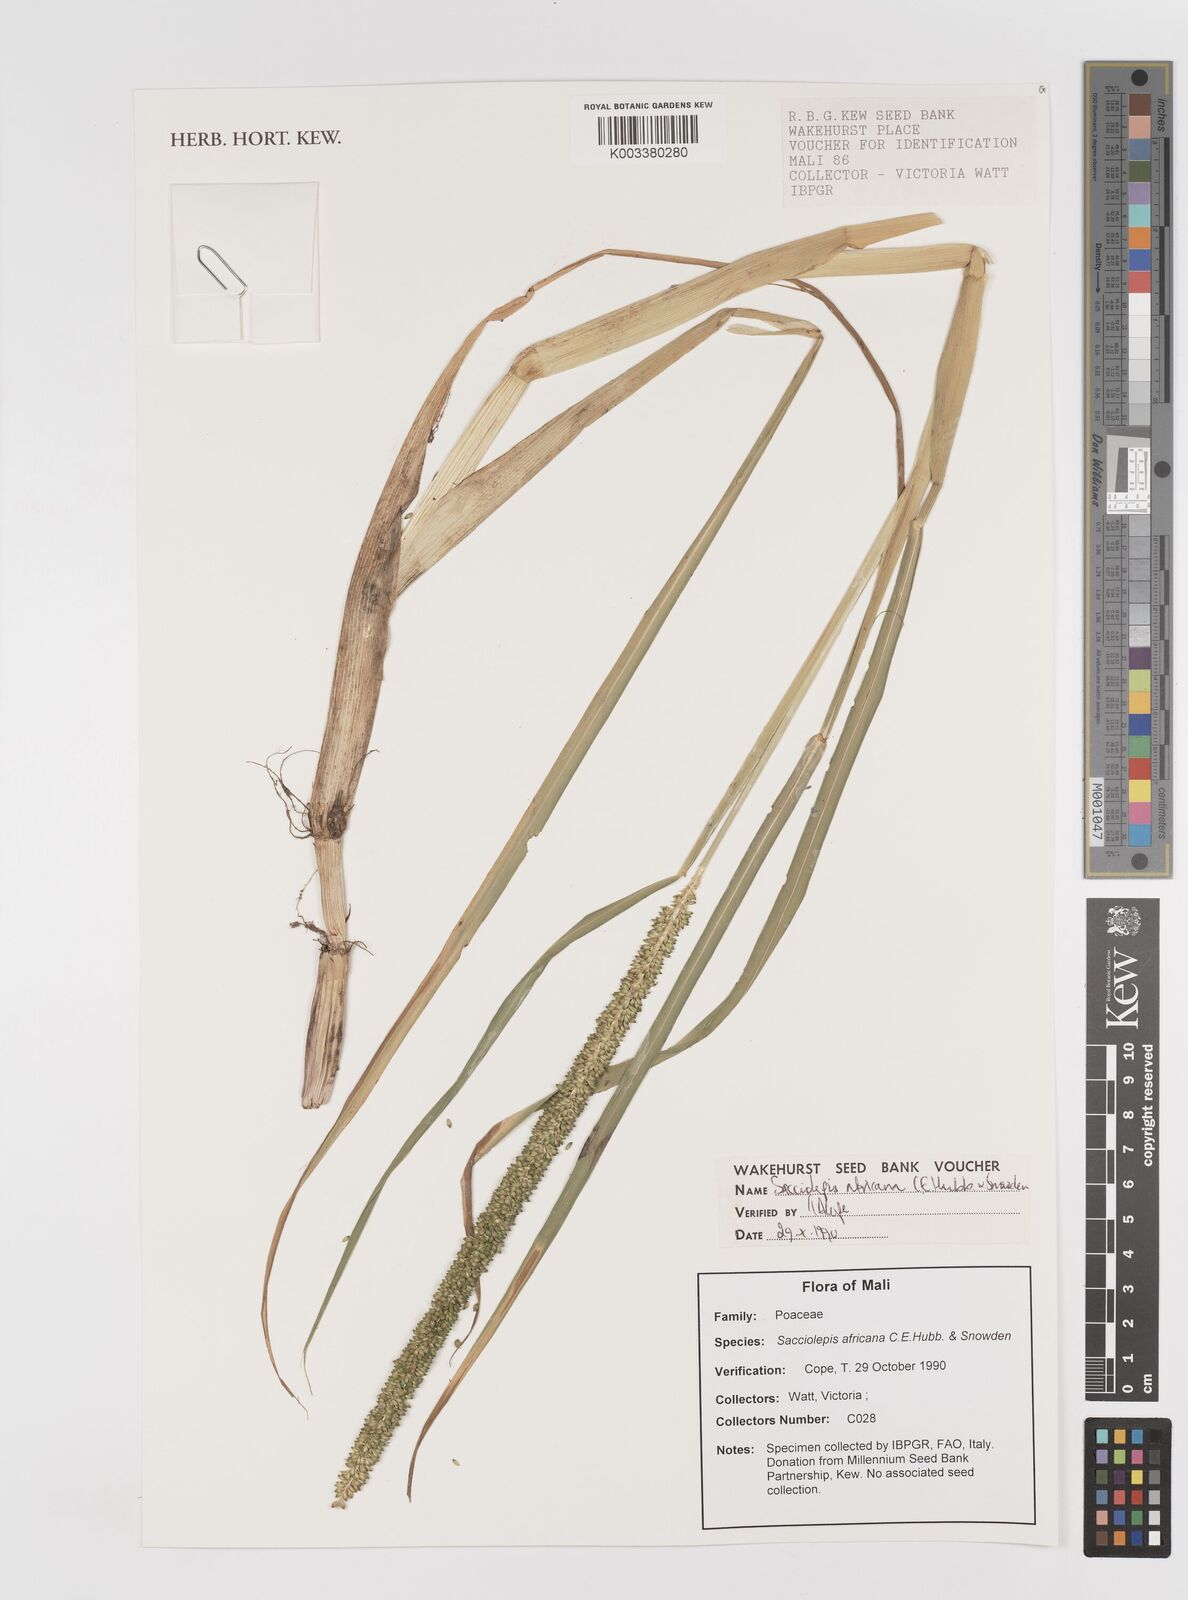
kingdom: Plantae
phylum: Tracheophyta
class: Liliopsida
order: Poales
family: Poaceae
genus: Sacciolepis
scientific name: Sacciolepis africana
